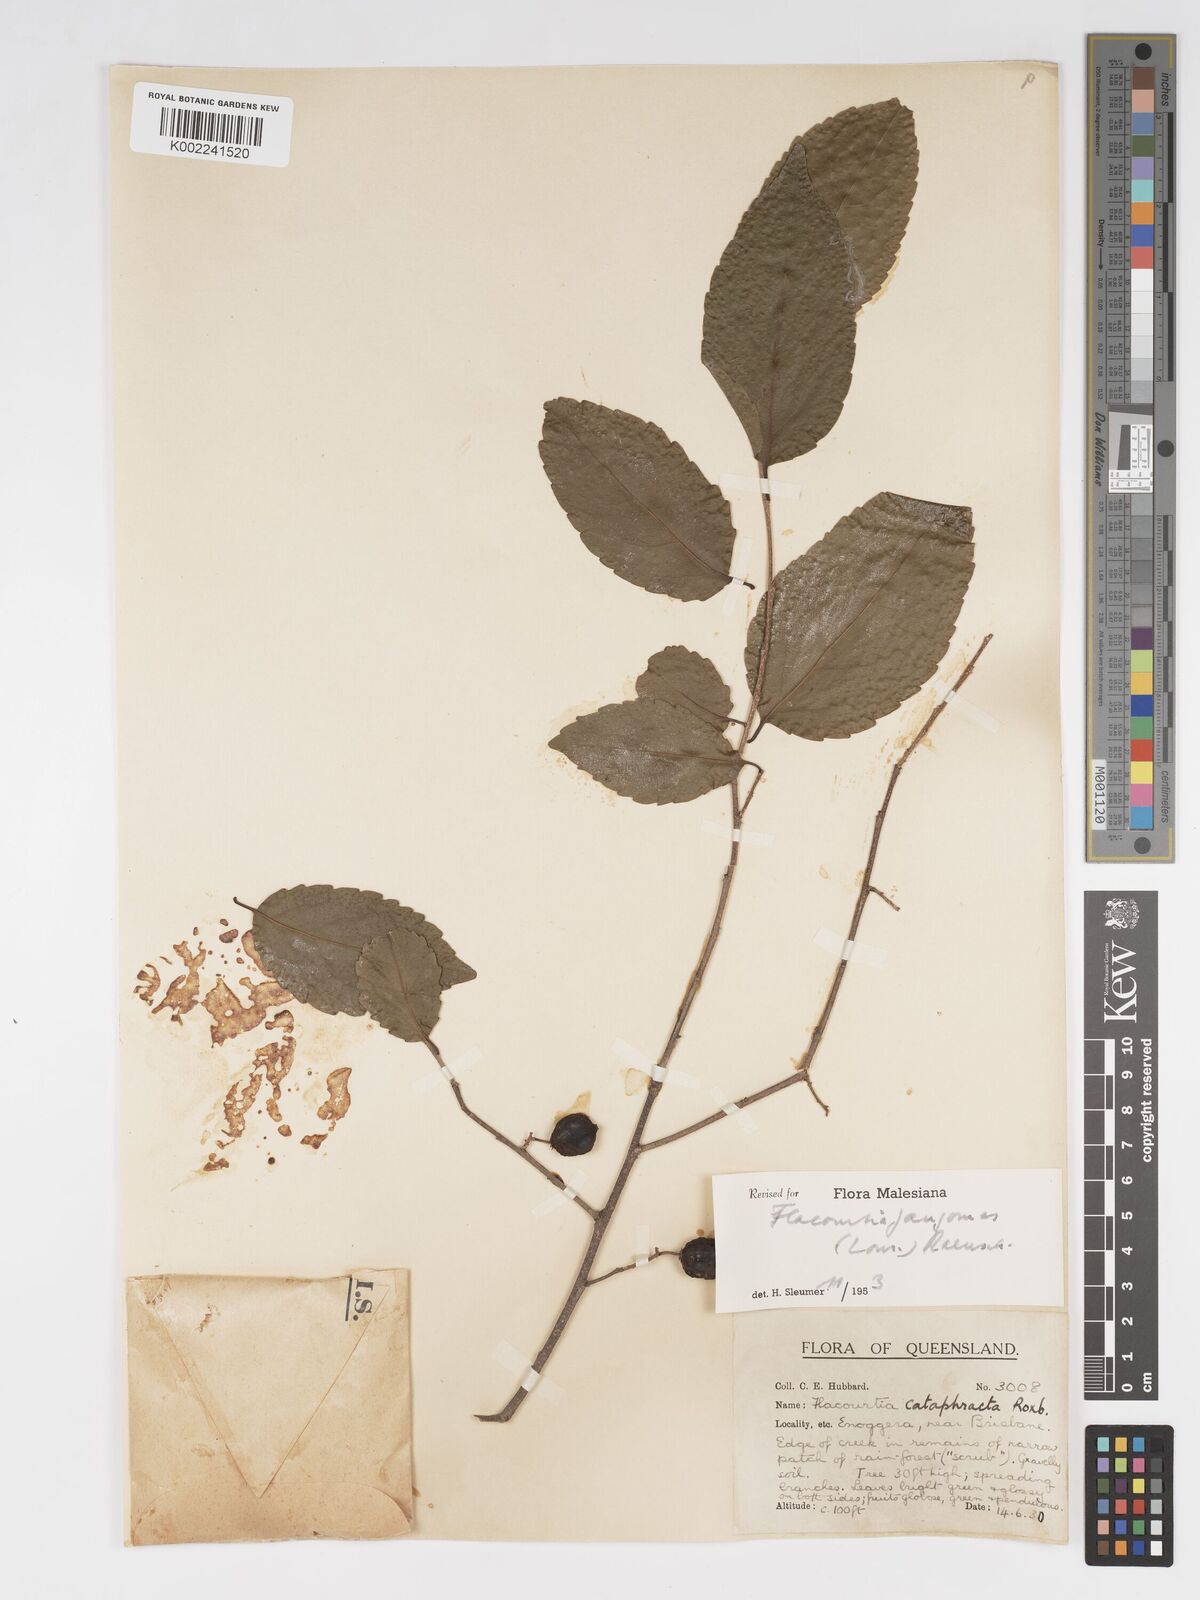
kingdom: Plantae
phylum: Tracheophyta
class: Magnoliopsida
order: Malpighiales
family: Salicaceae
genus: Flacourtia
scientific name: Flacourtia jangomas
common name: Indian-plum
